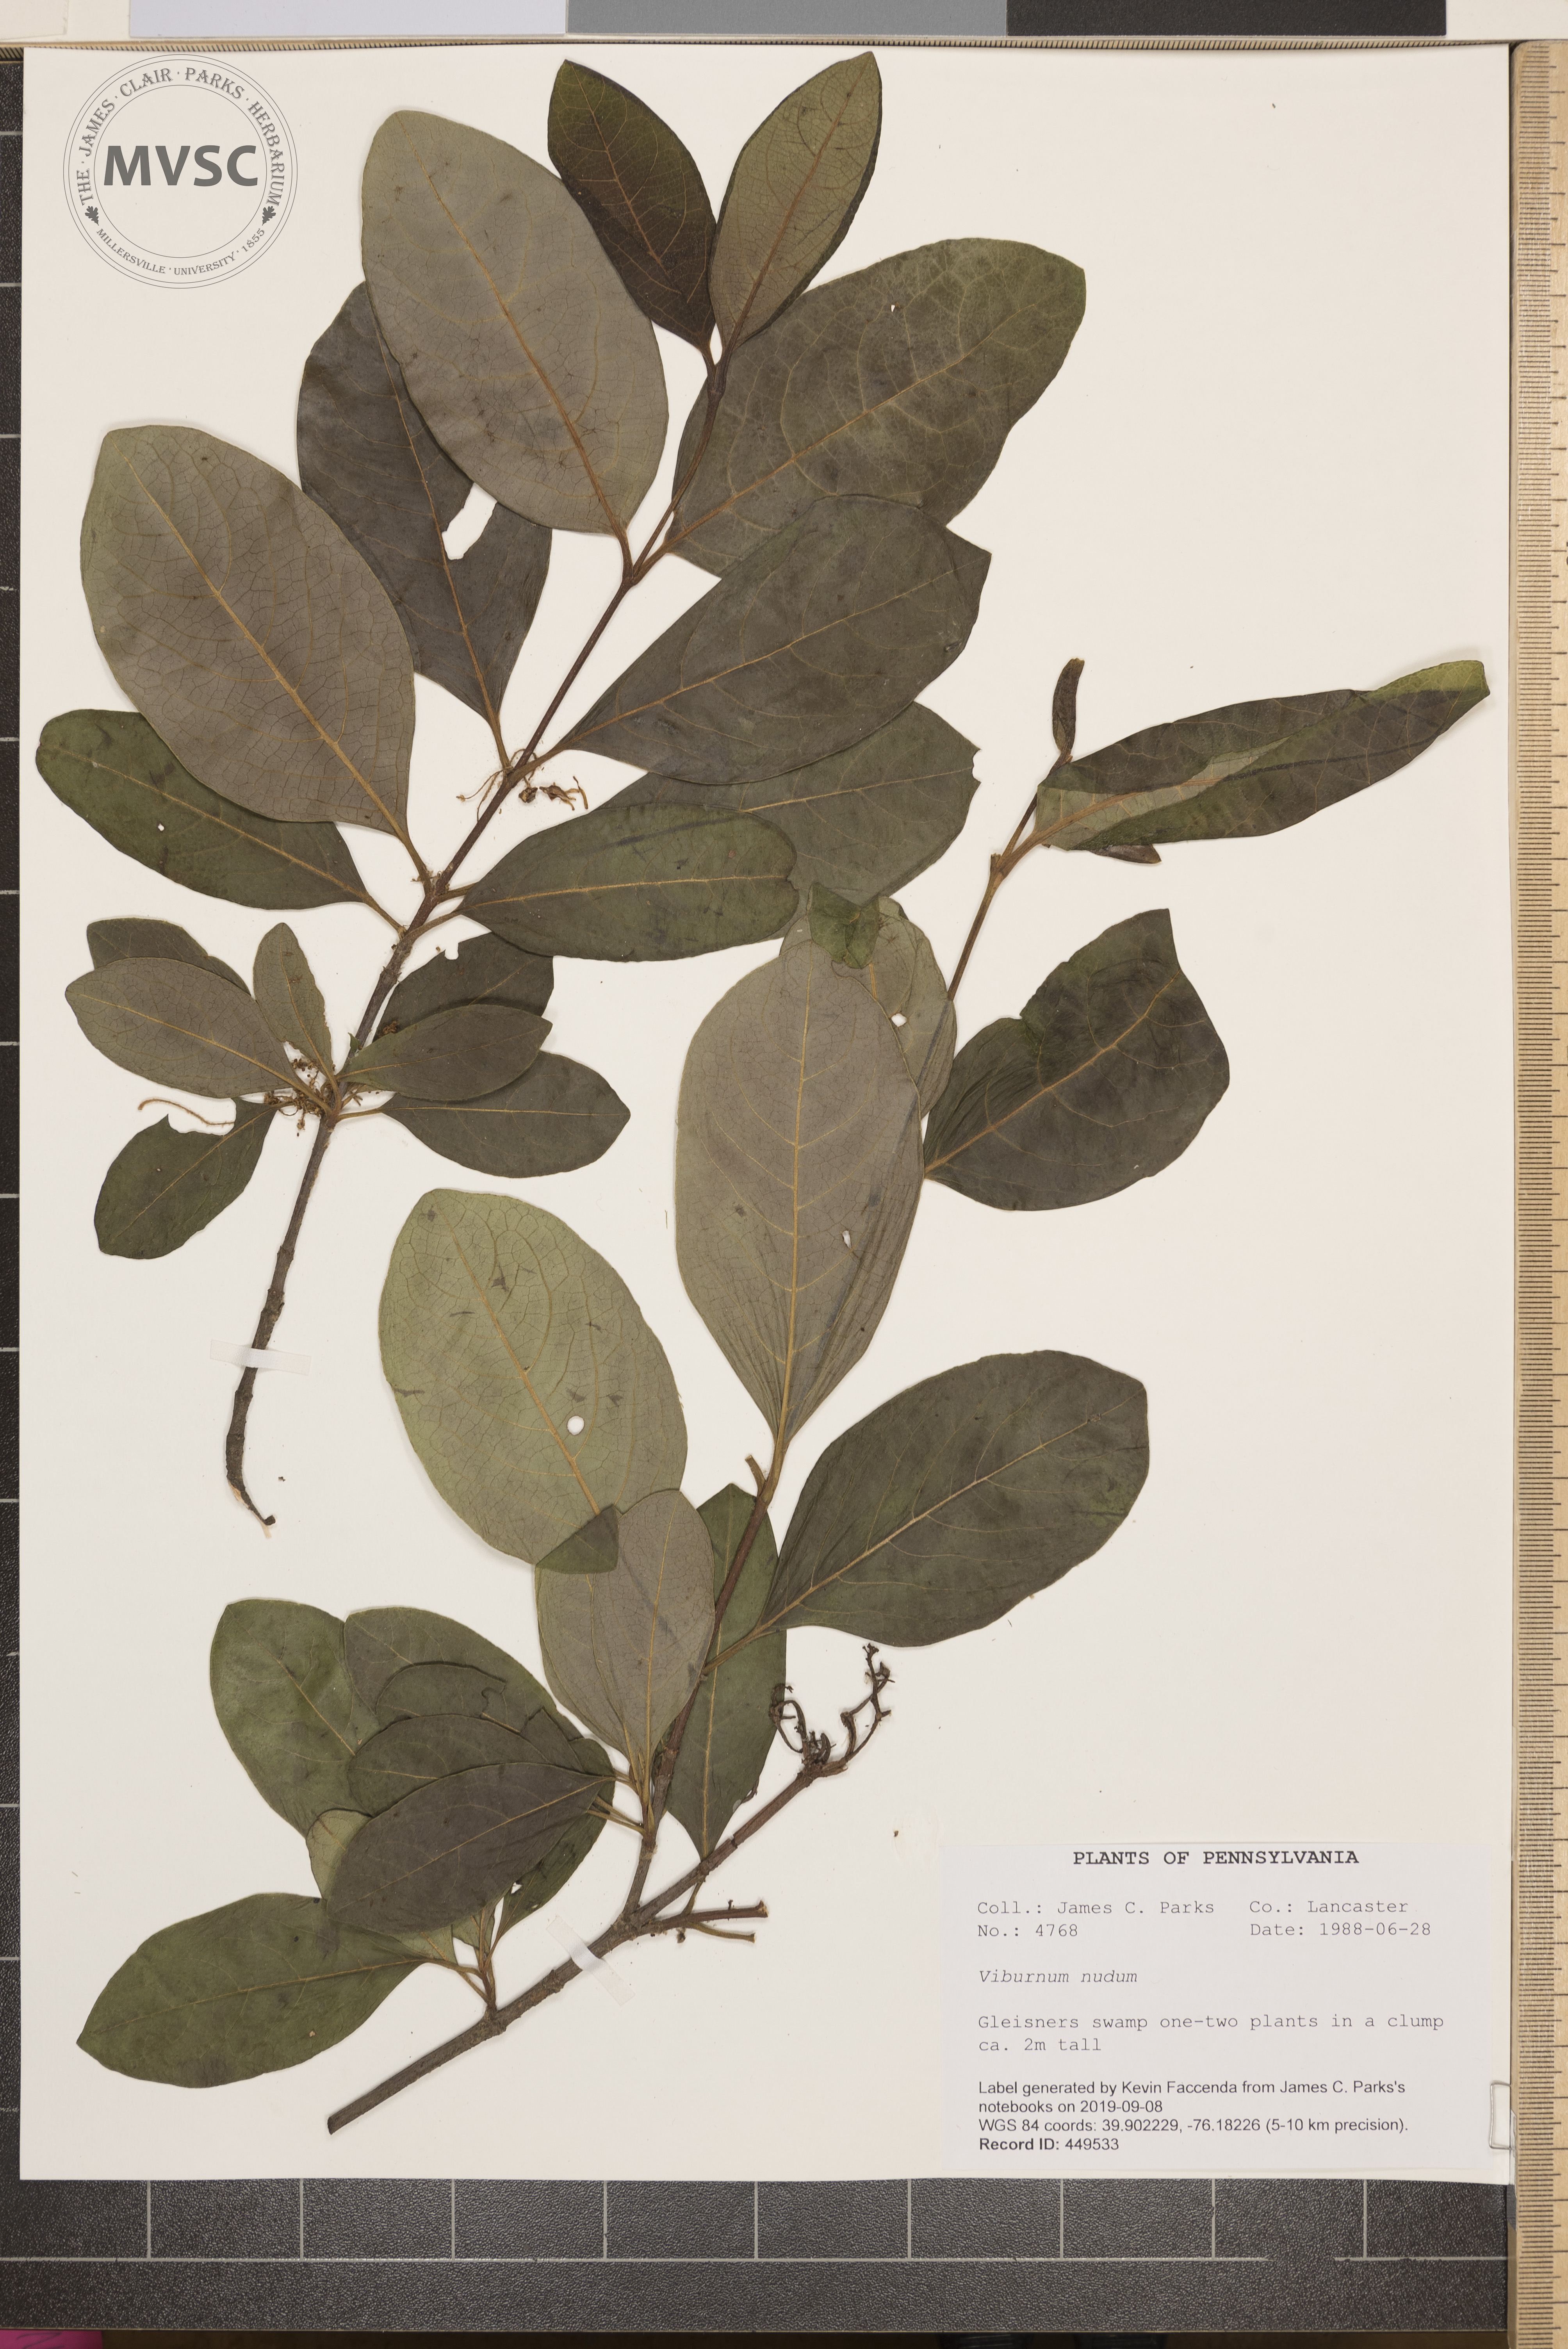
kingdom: Plantae
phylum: Tracheophyta
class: Magnoliopsida
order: Dipsacales
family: Viburnaceae
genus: Viburnum
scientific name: Viburnum nudum
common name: Possum haw
